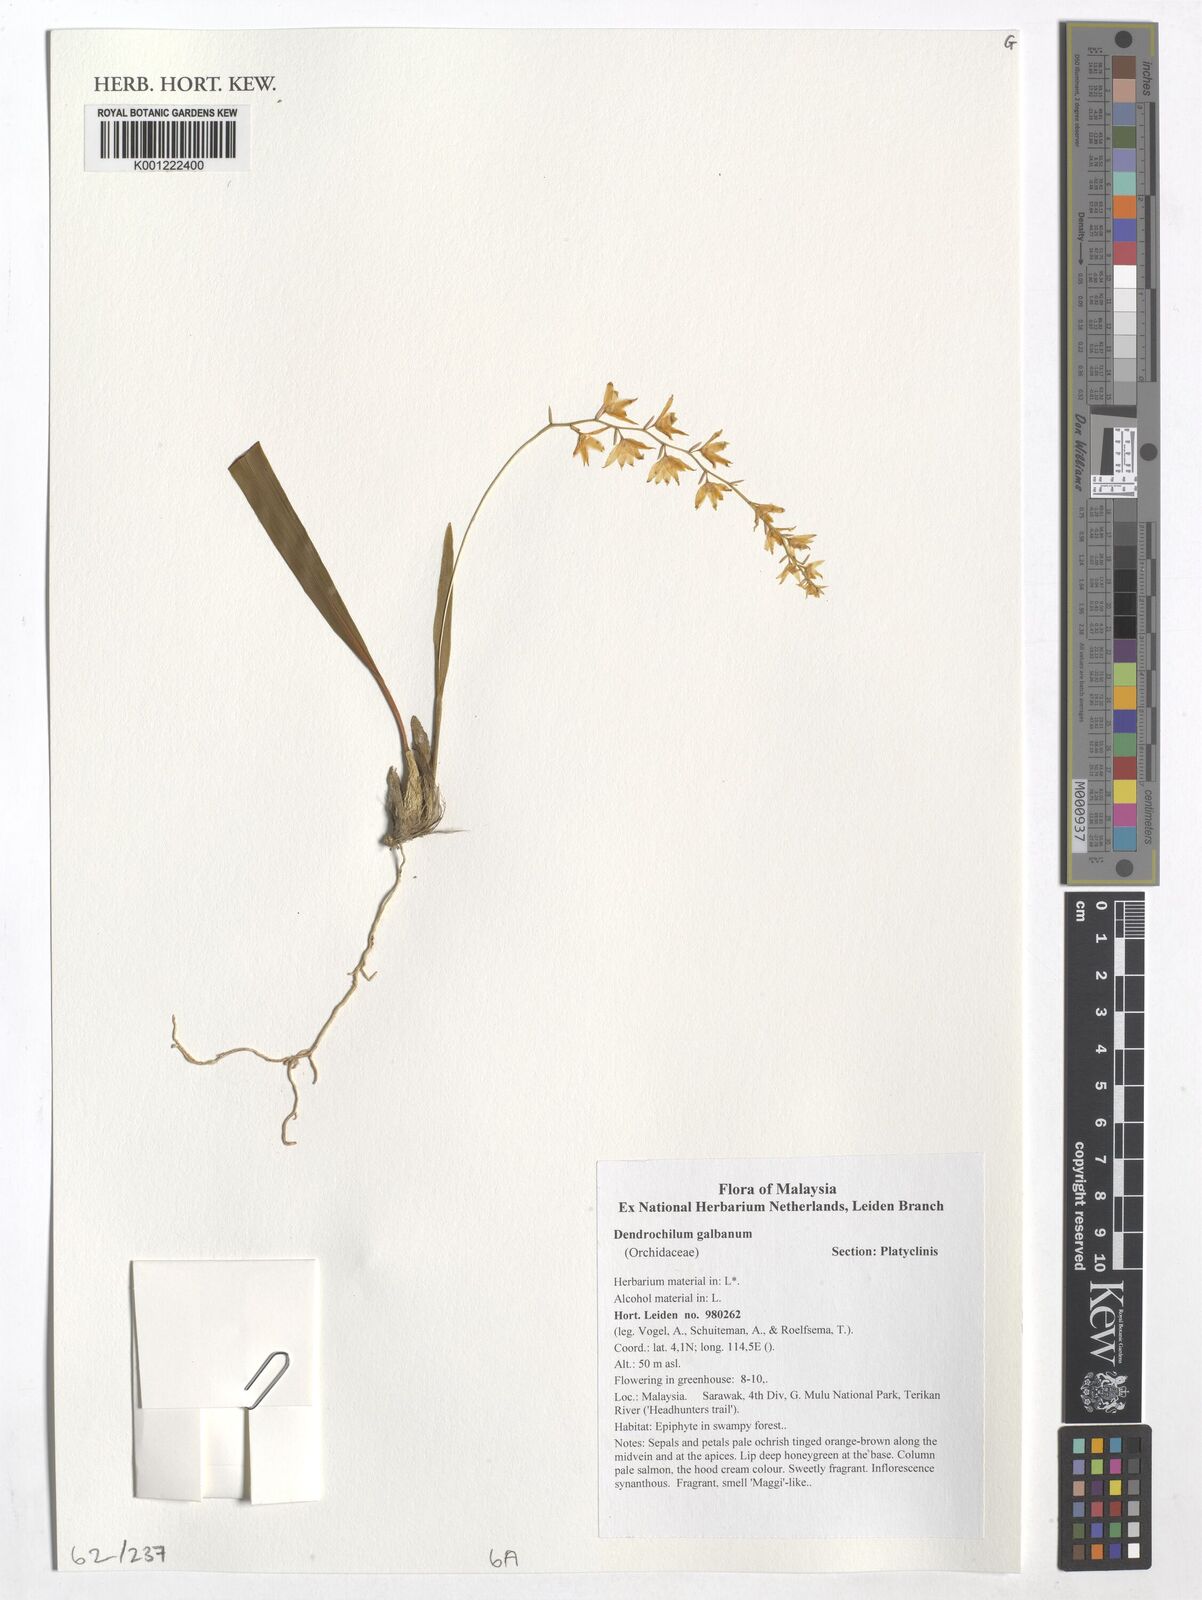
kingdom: Plantae
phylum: Tracheophyta
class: Liliopsida
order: Asparagales
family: Orchidaceae
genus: Coelogyne
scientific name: Coelogyne galbana
